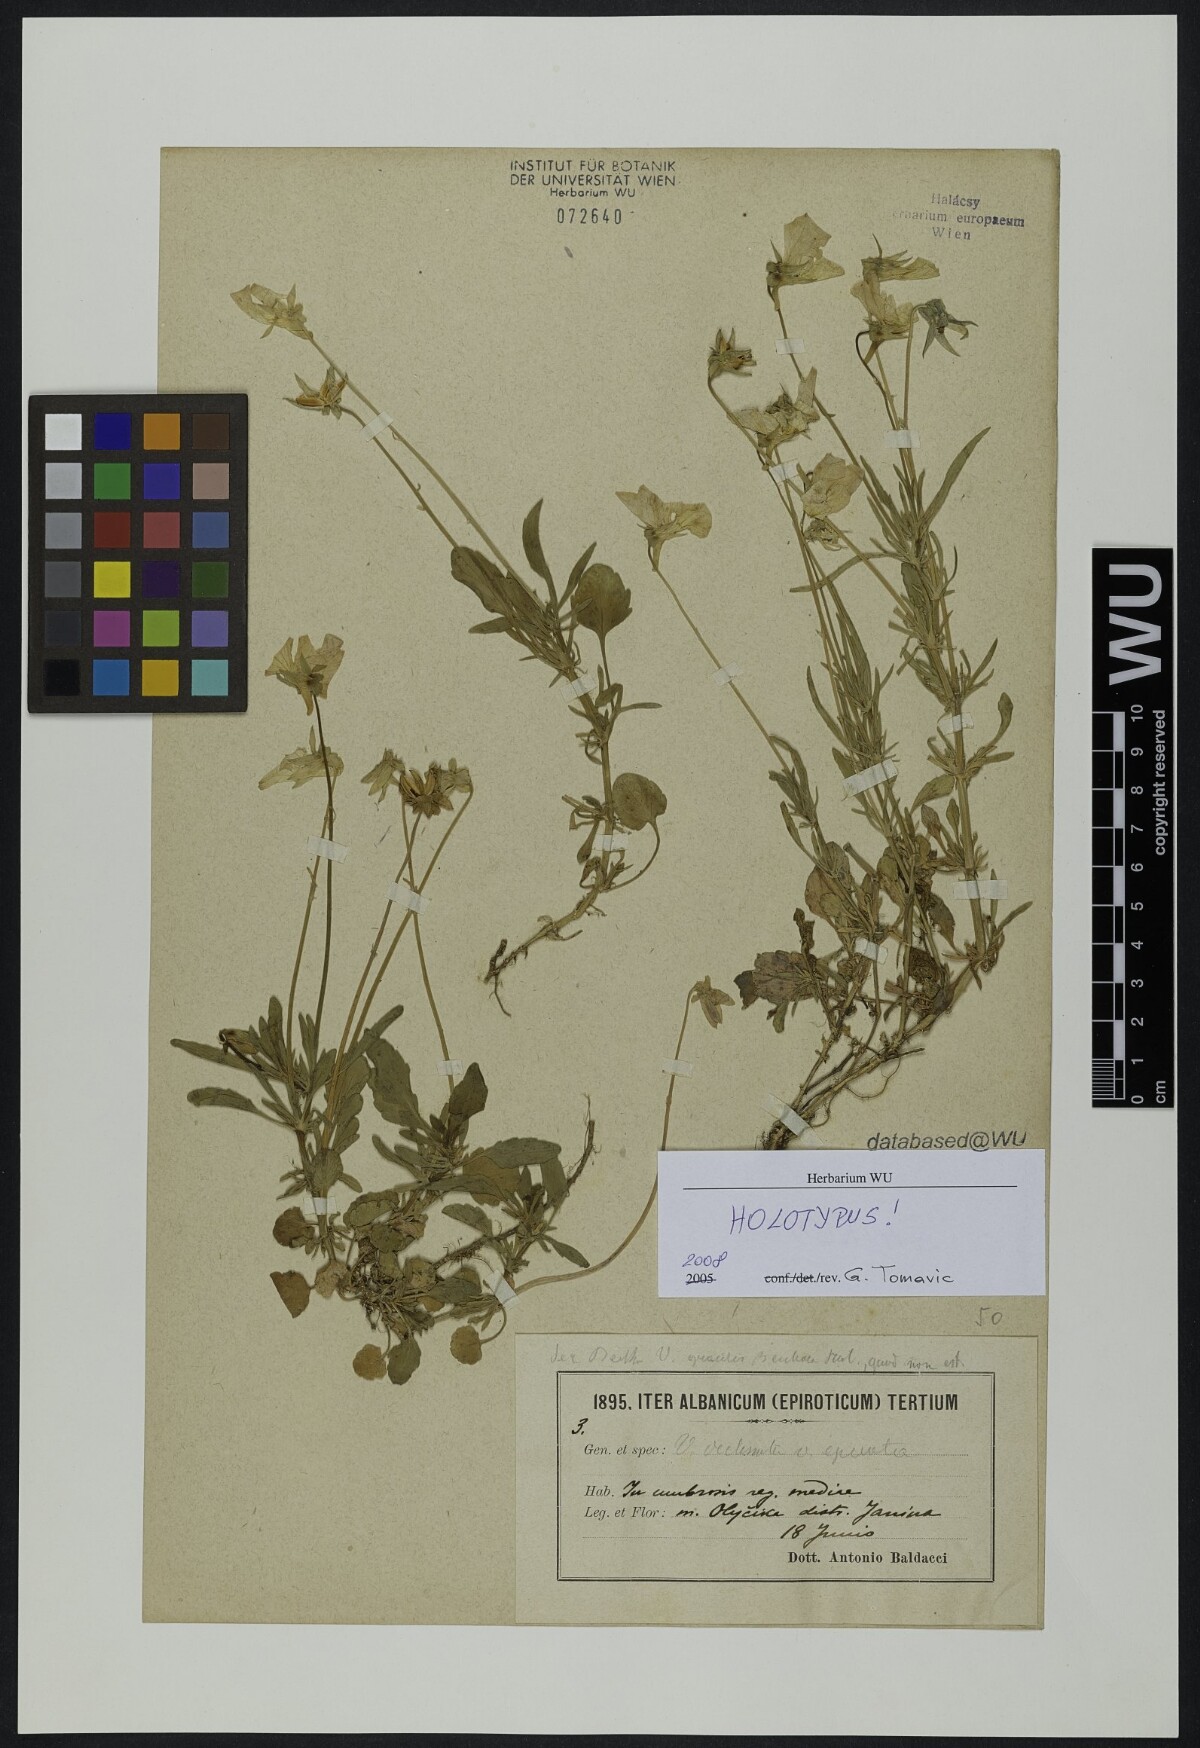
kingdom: Plantae
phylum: Tracheophyta
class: Magnoliopsida
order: Malpighiales
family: Violaceae
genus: Viola
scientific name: Viola epirota
